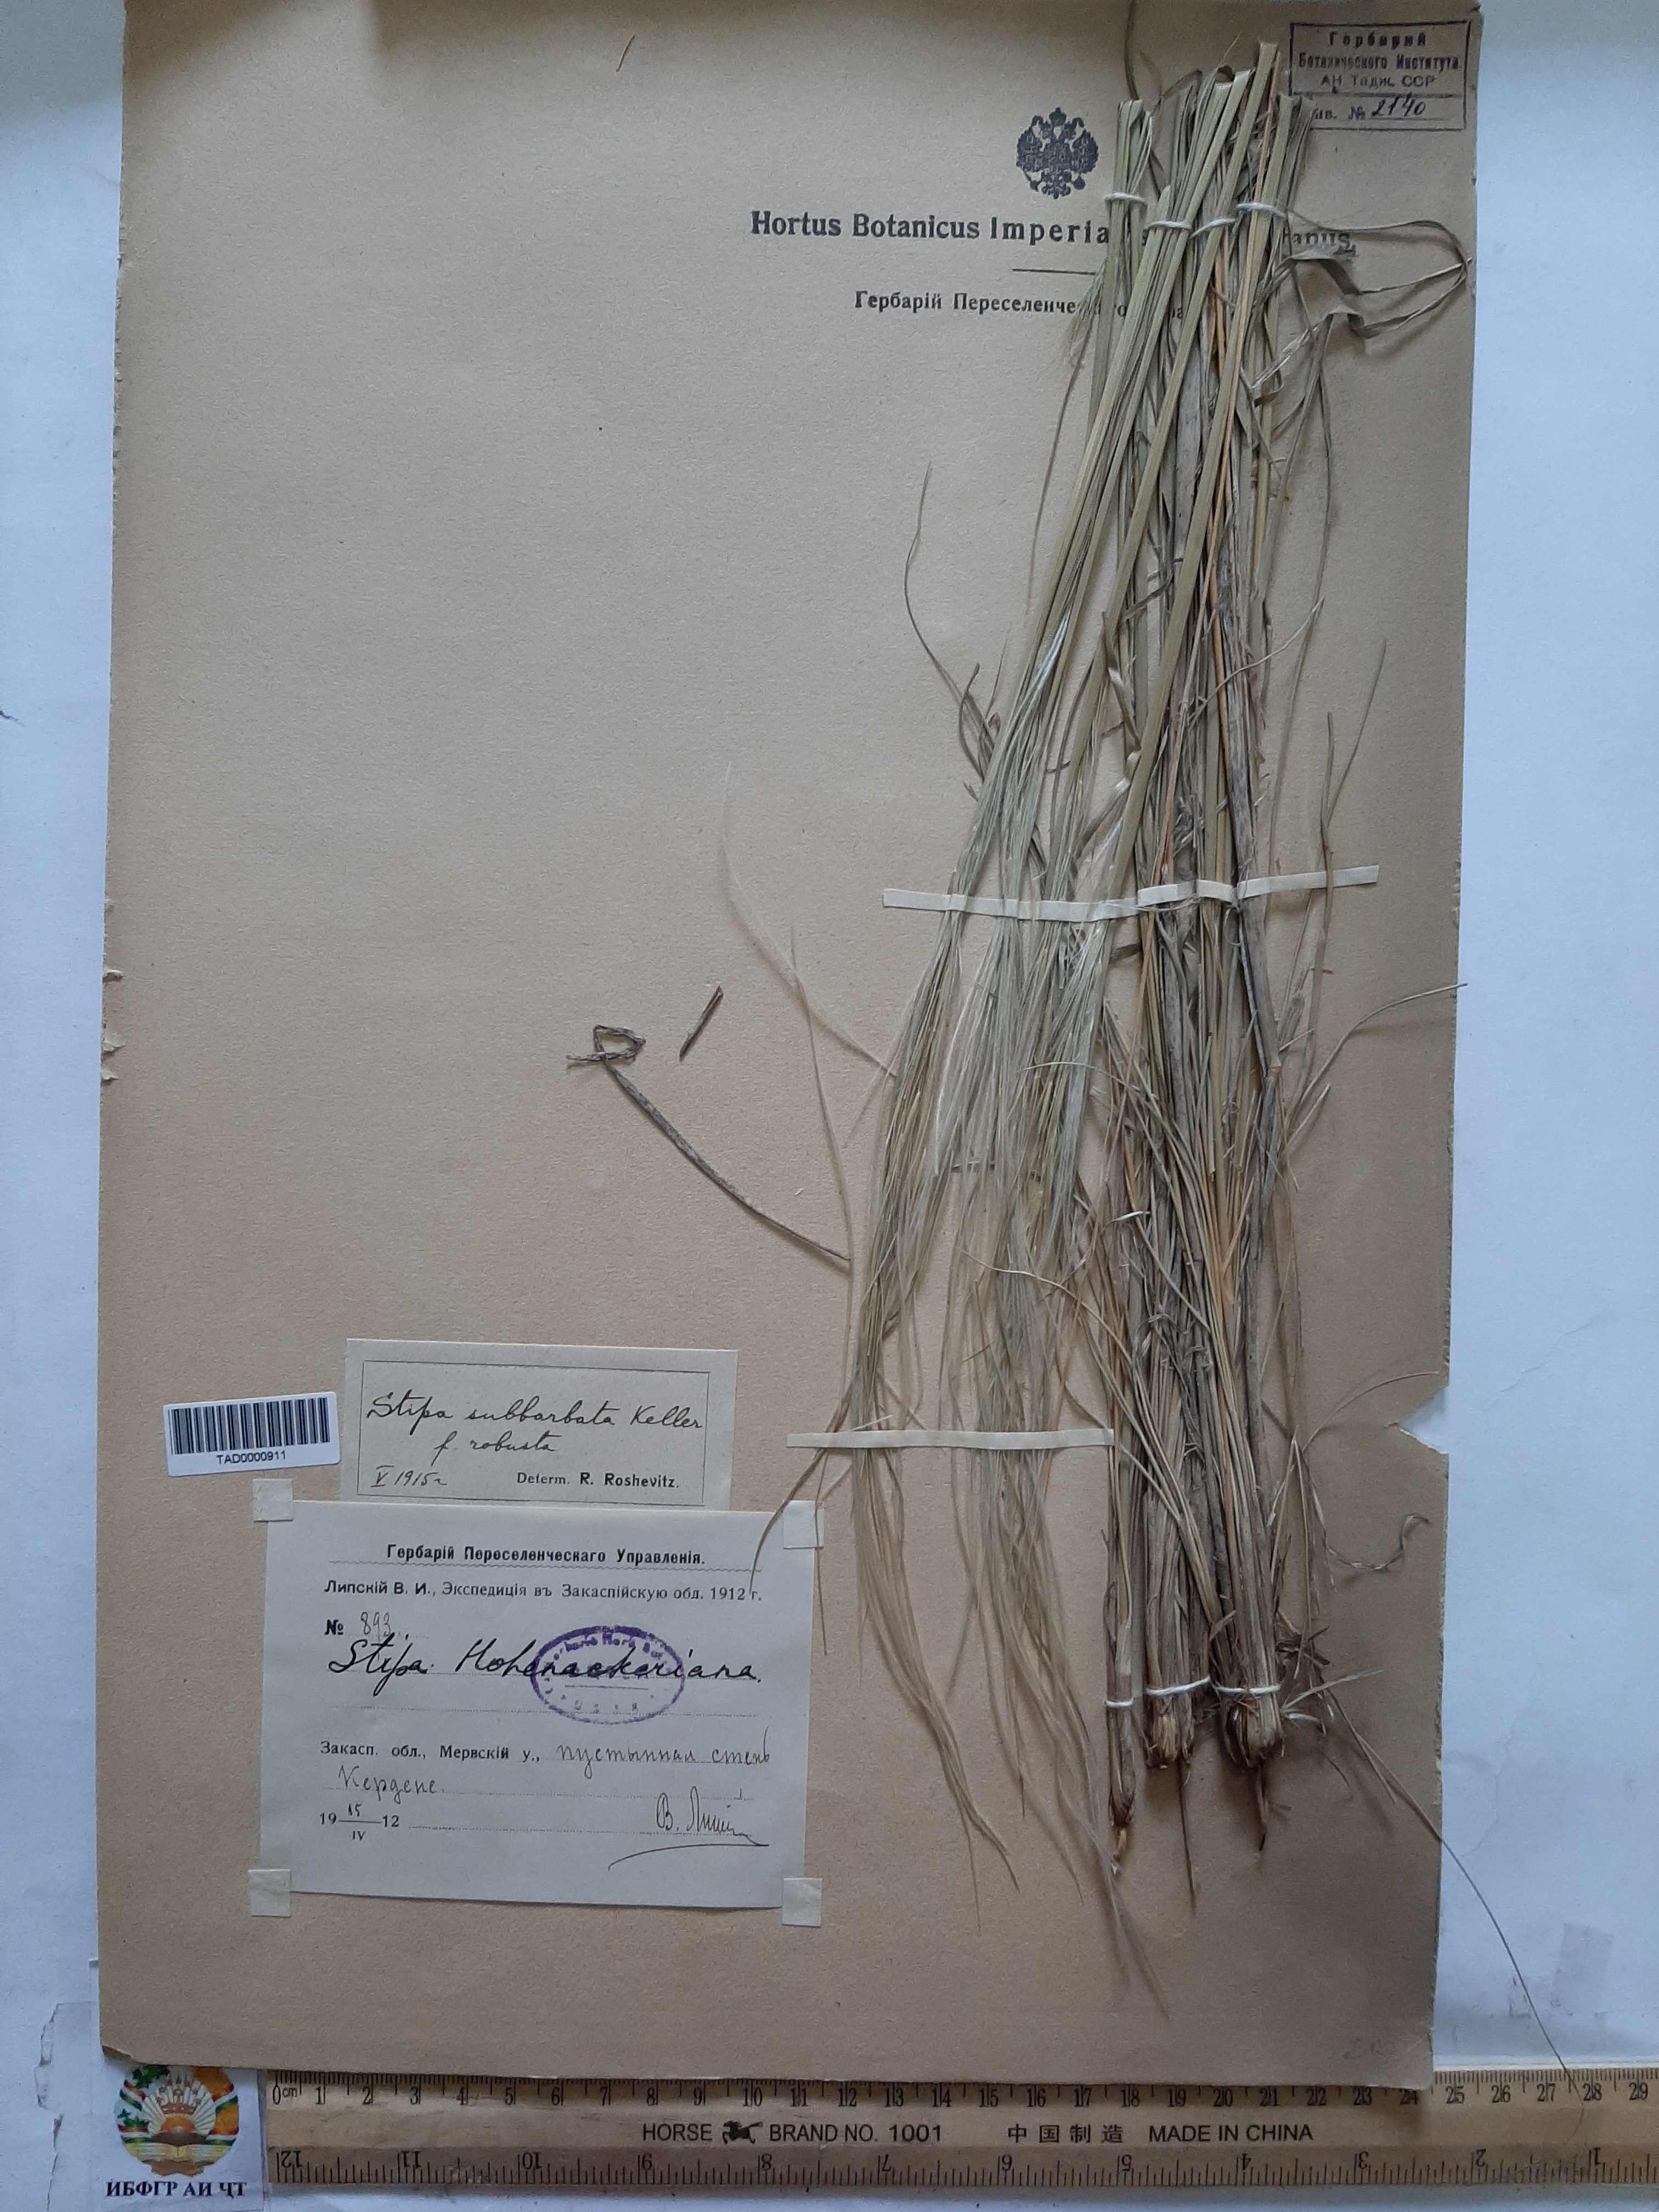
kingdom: Plantae
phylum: Tracheophyta
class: Liliopsida
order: Poales
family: Poaceae
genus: Stipa
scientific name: Stipa hohenackeriana
